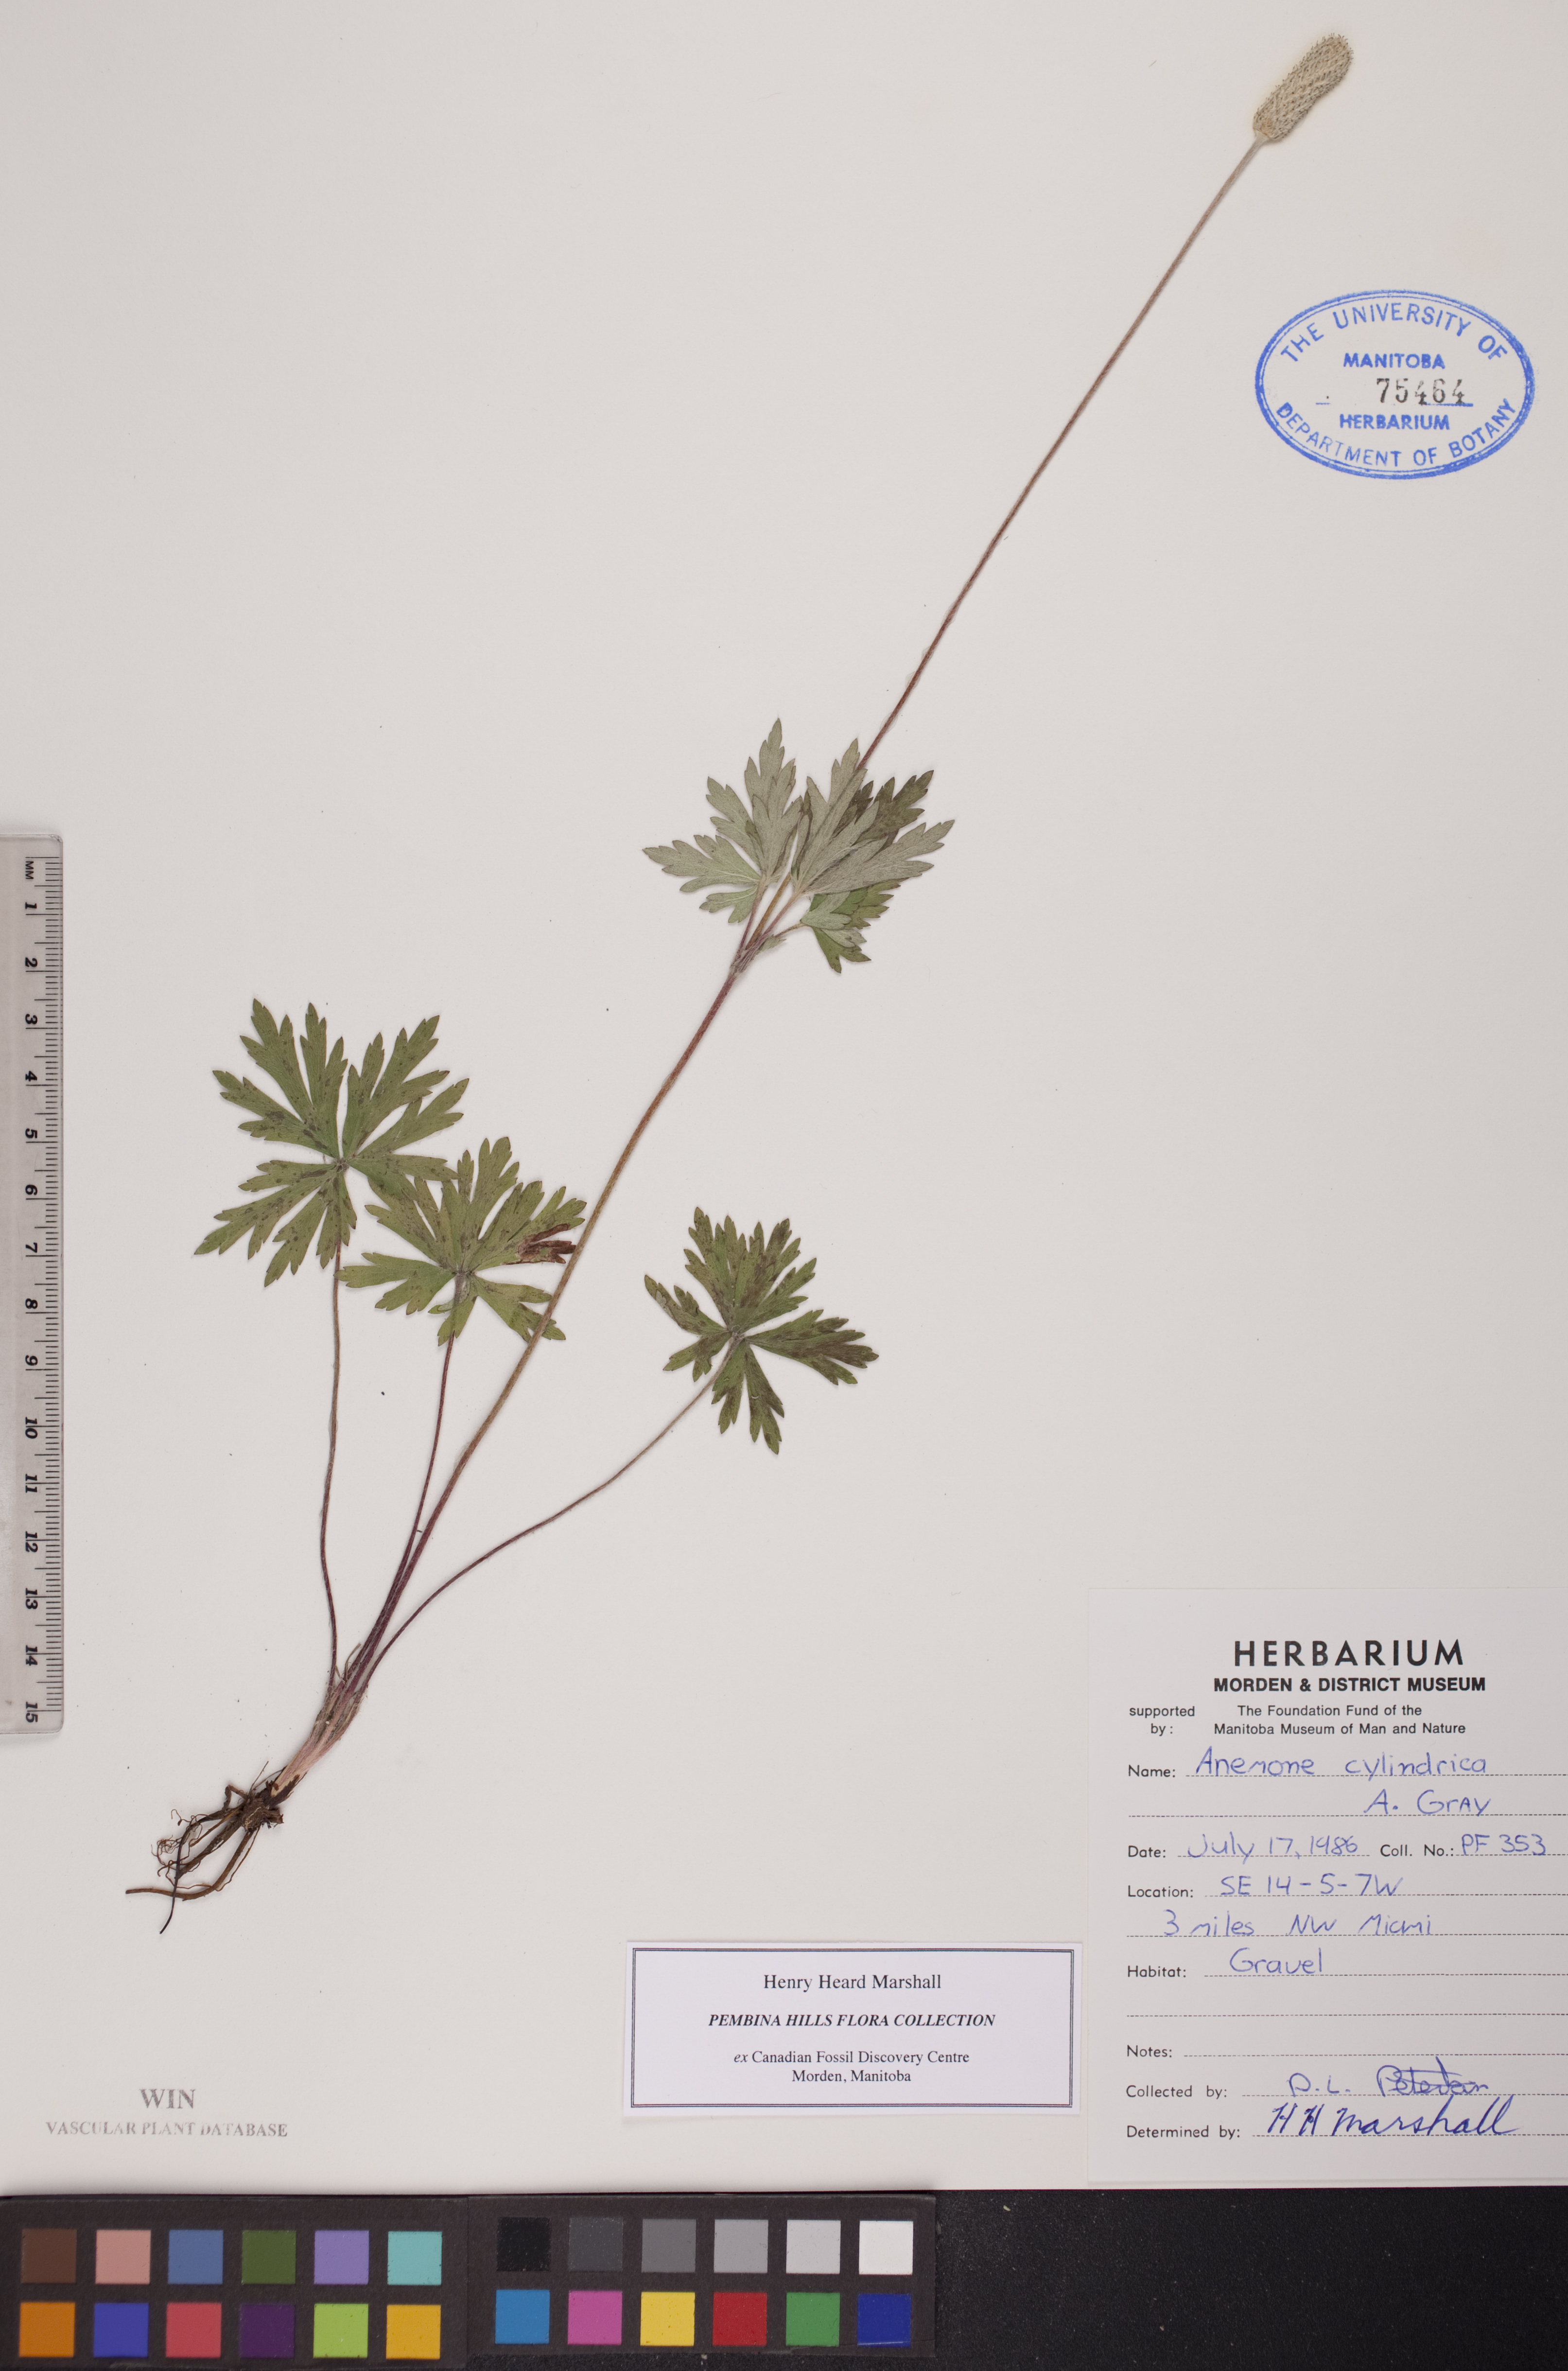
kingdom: Plantae
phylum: Tracheophyta
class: Magnoliopsida
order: Ranunculales
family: Ranunculaceae
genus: Anemone
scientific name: Anemone cylindrica
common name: Candle anemone
